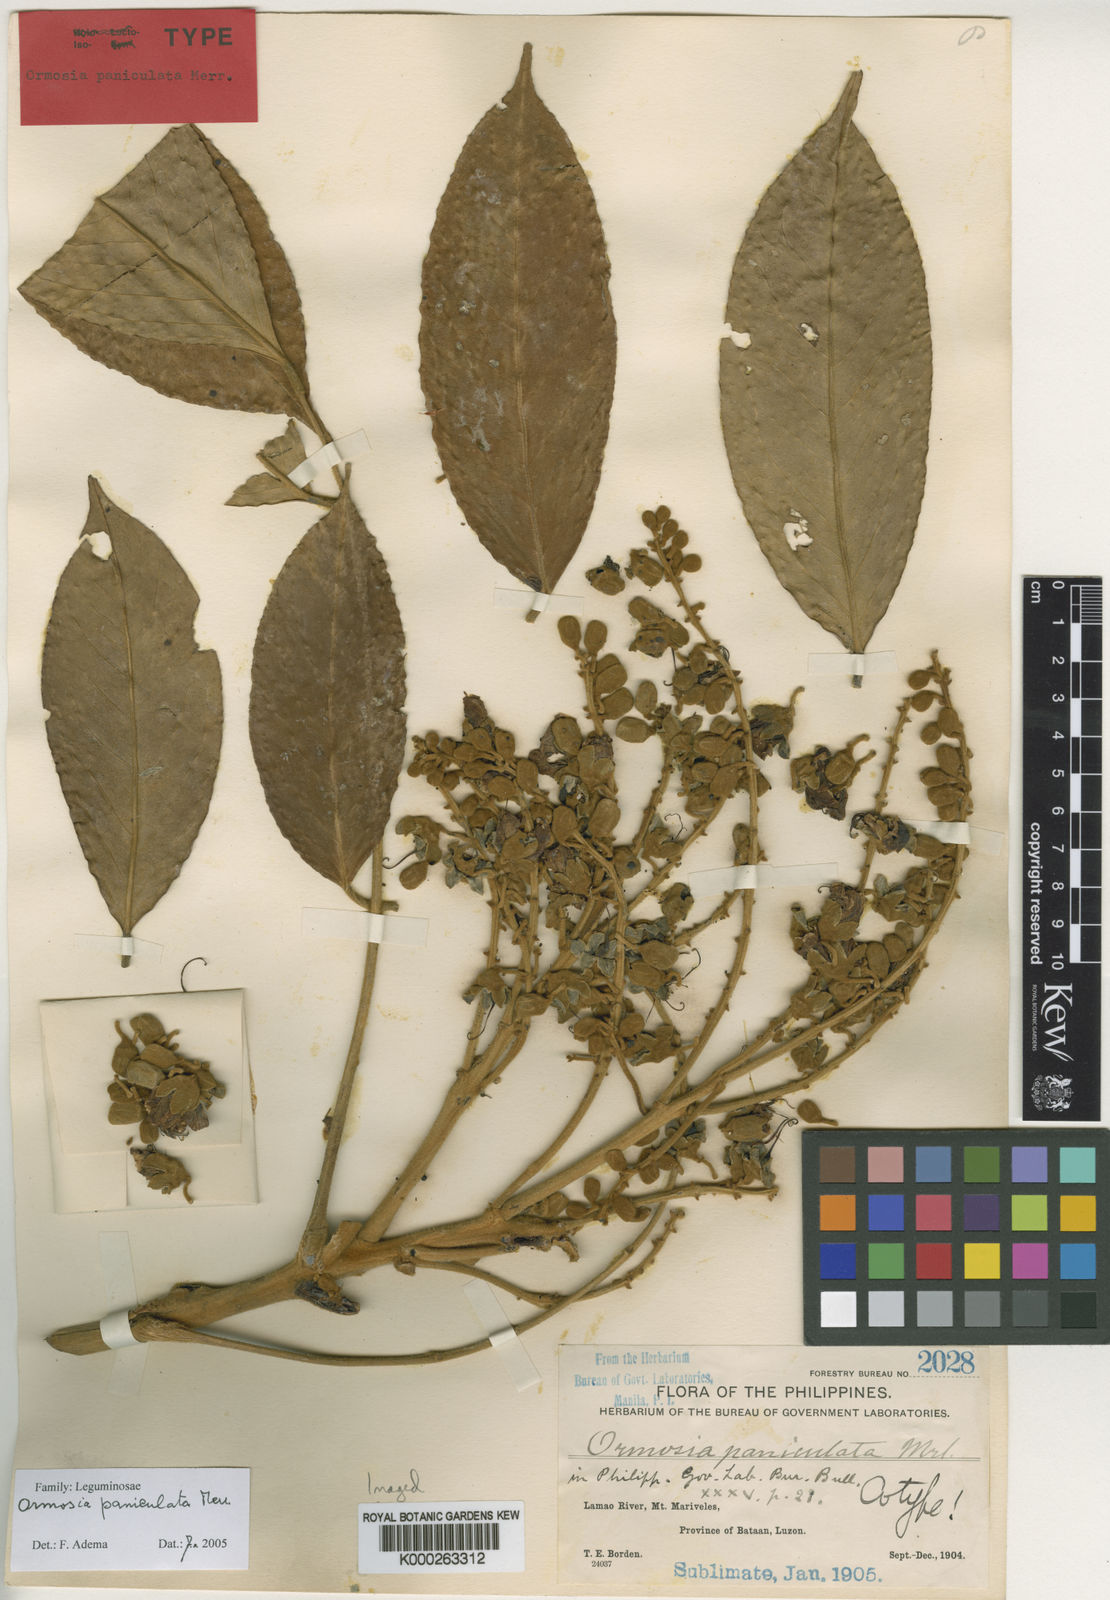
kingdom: Plantae
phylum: Tracheophyta
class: Magnoliopsida
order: Fabales
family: Fabaceae
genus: Ormosia
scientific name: Ormosia paniculata
